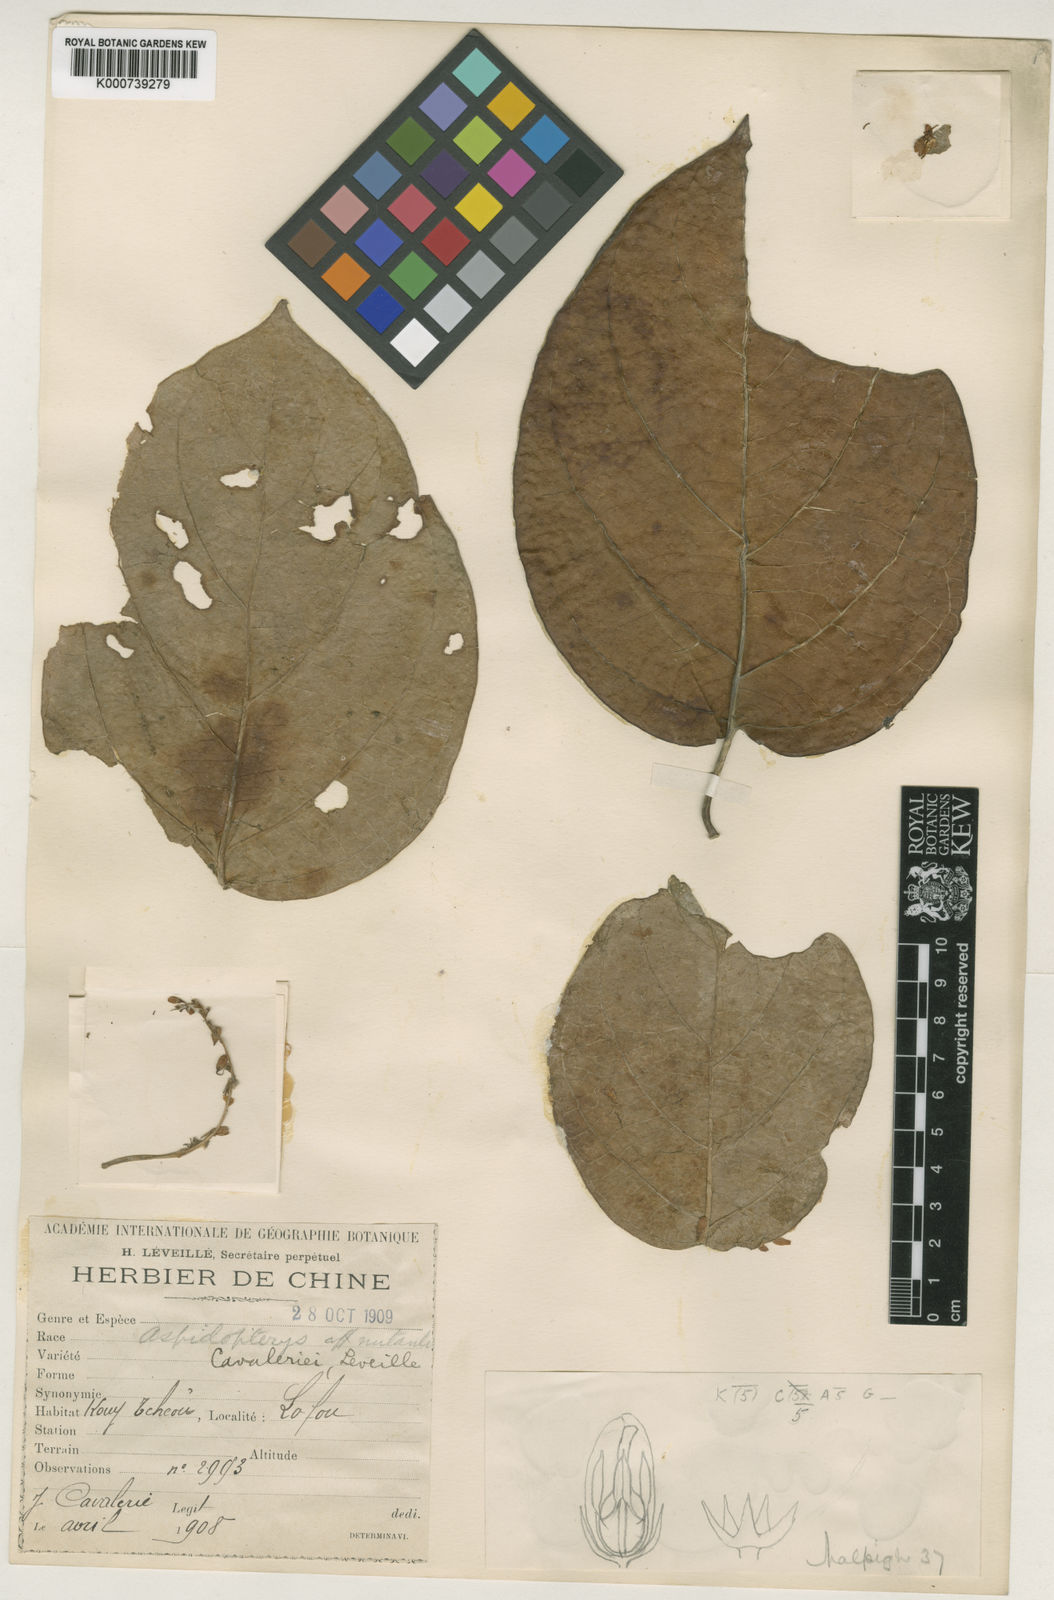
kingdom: Plantae
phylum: Tracheophyta
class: Magnoliopsida
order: Malpighiales
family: Malpighiaceae
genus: Aspidopterys
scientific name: Aspidopterys
